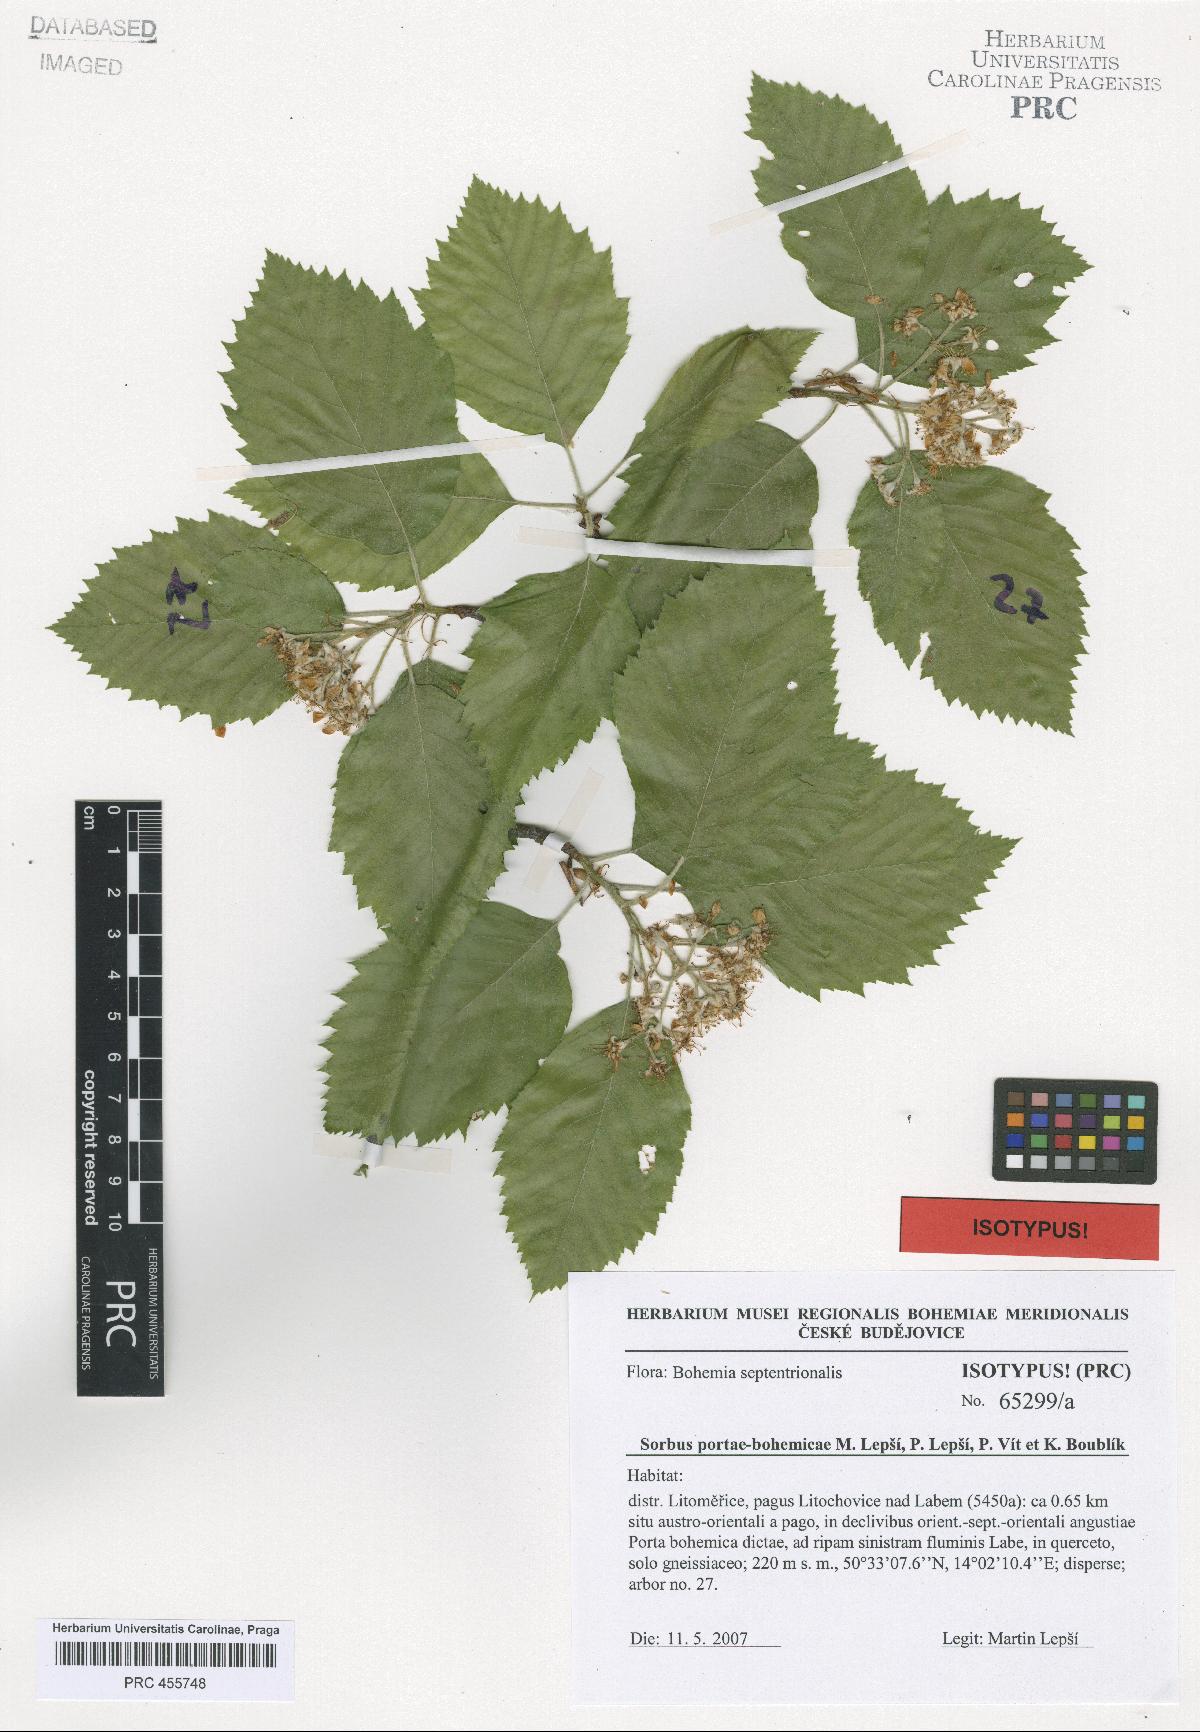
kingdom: Plantae
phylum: Tracheophyta
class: Magnoliopsida
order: Rosales
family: Rosaceae
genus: Karpatiosorbus
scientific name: Karpatiosorbus portae-bohemicae
